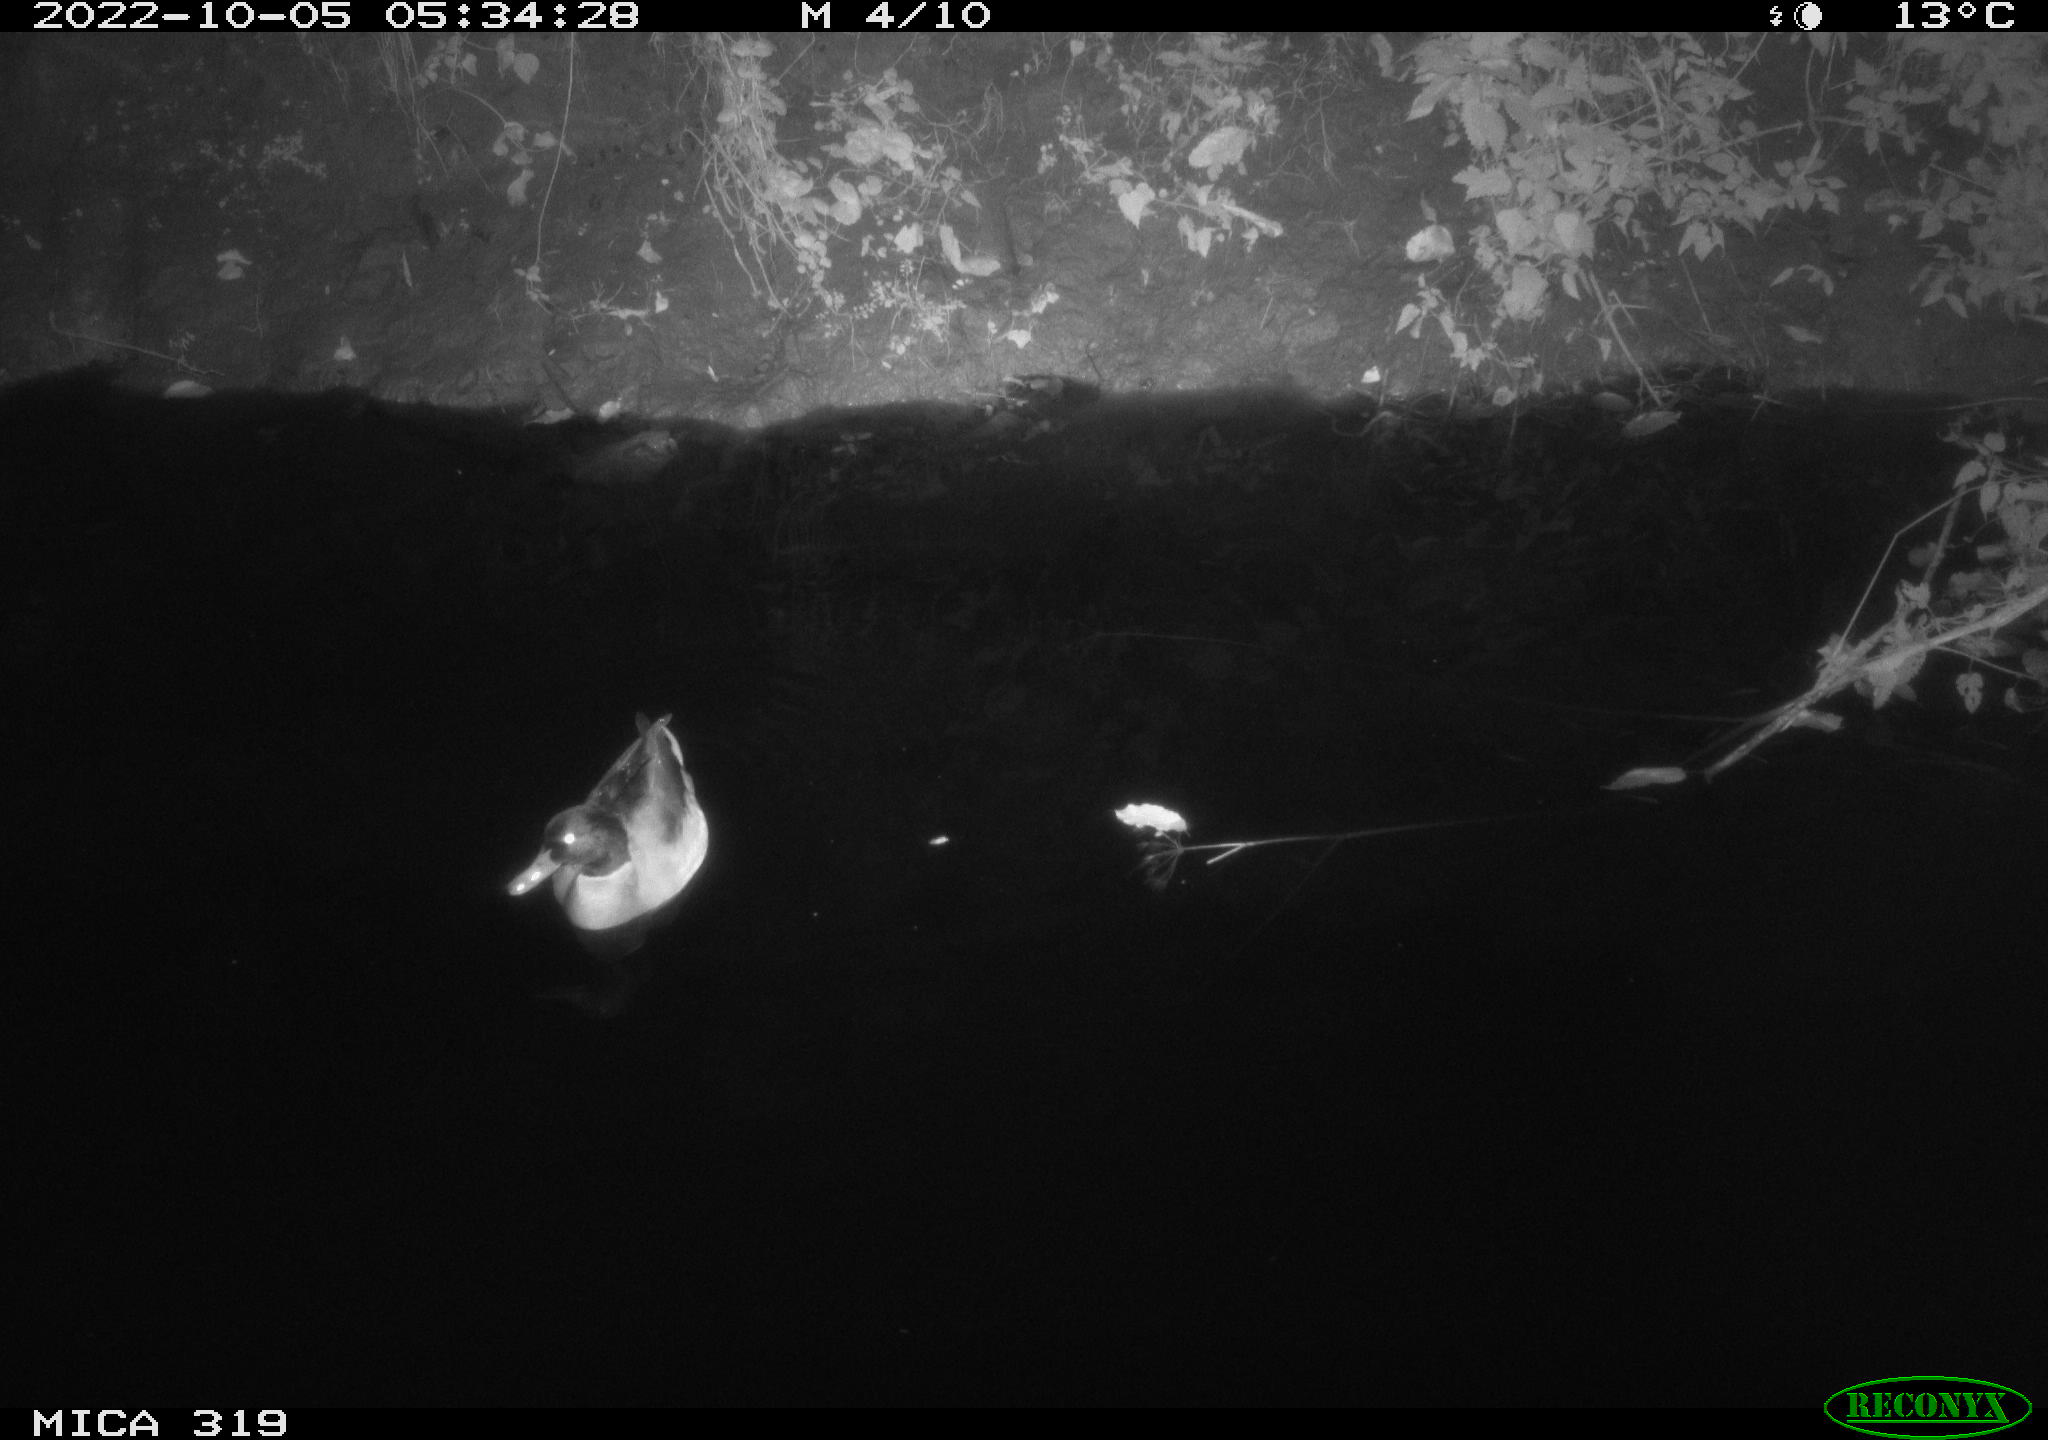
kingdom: Animalia
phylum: Chordata
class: Aves
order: Anseriformes
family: Anatidae
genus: Anas
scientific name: Anas
